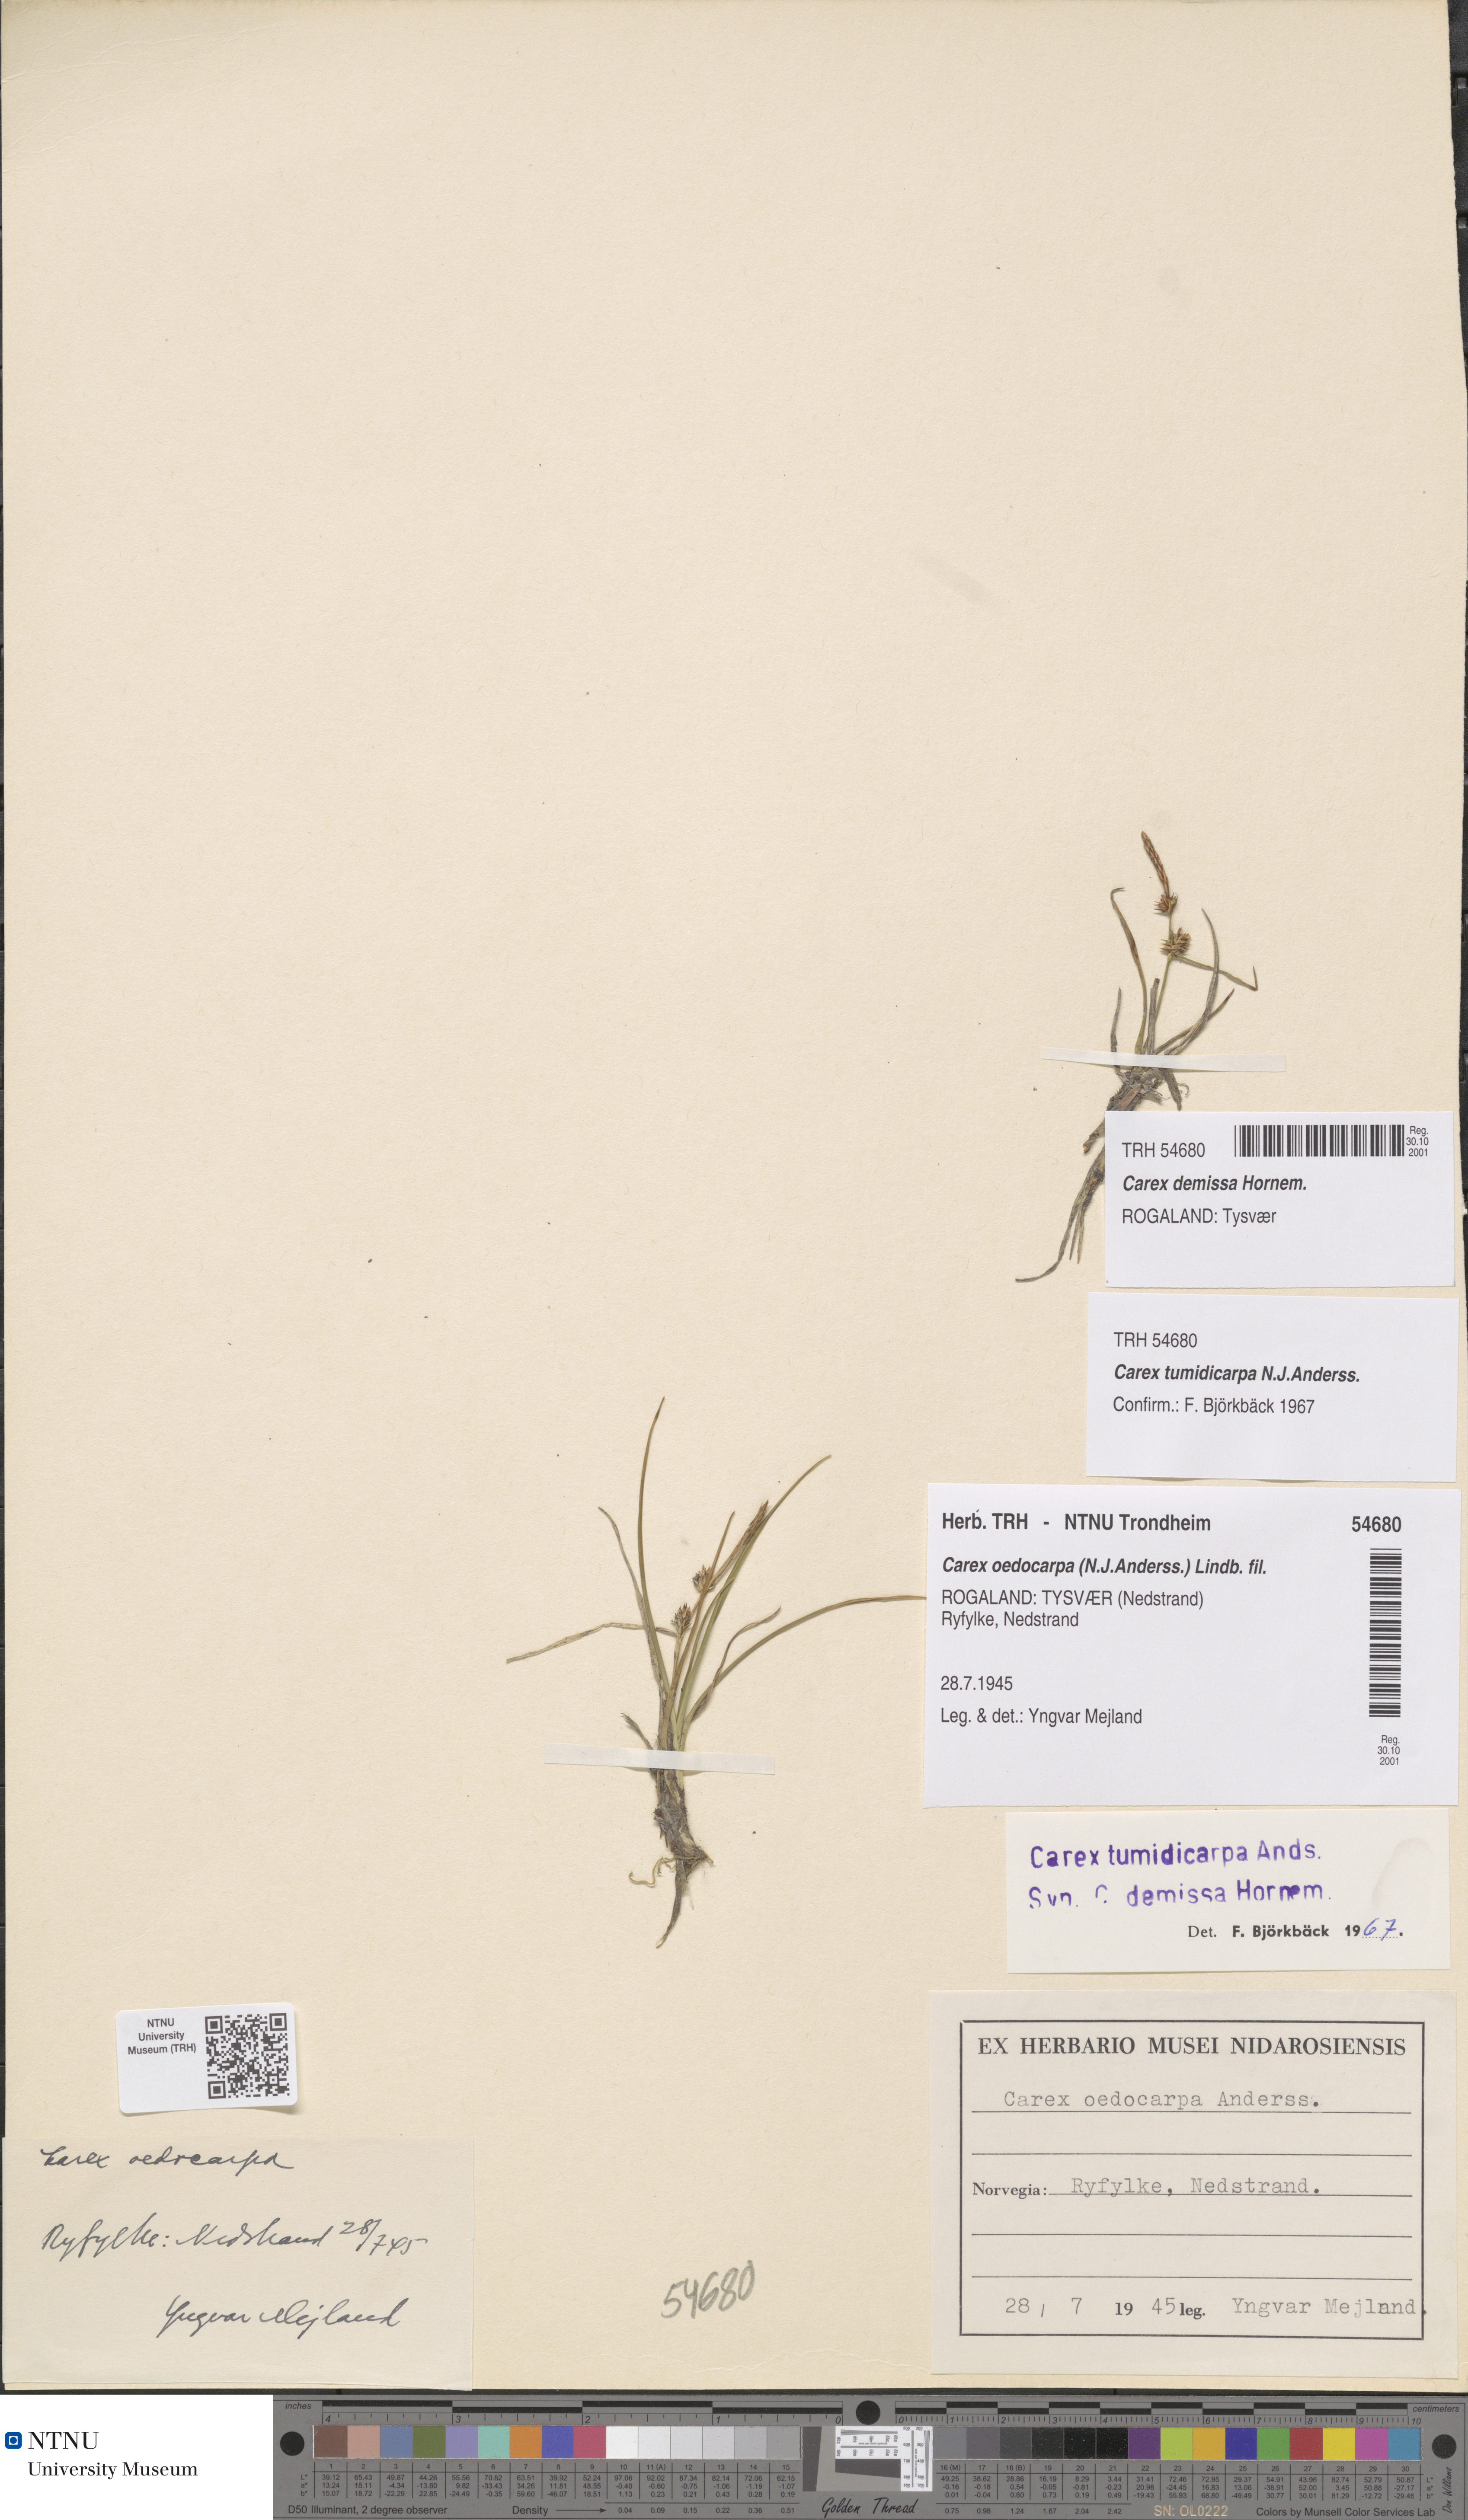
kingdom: Plantae
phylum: Tracheophyta
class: Liliopsida
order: Poales
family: Cyperaceae
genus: Carex
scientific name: Carex demissa
